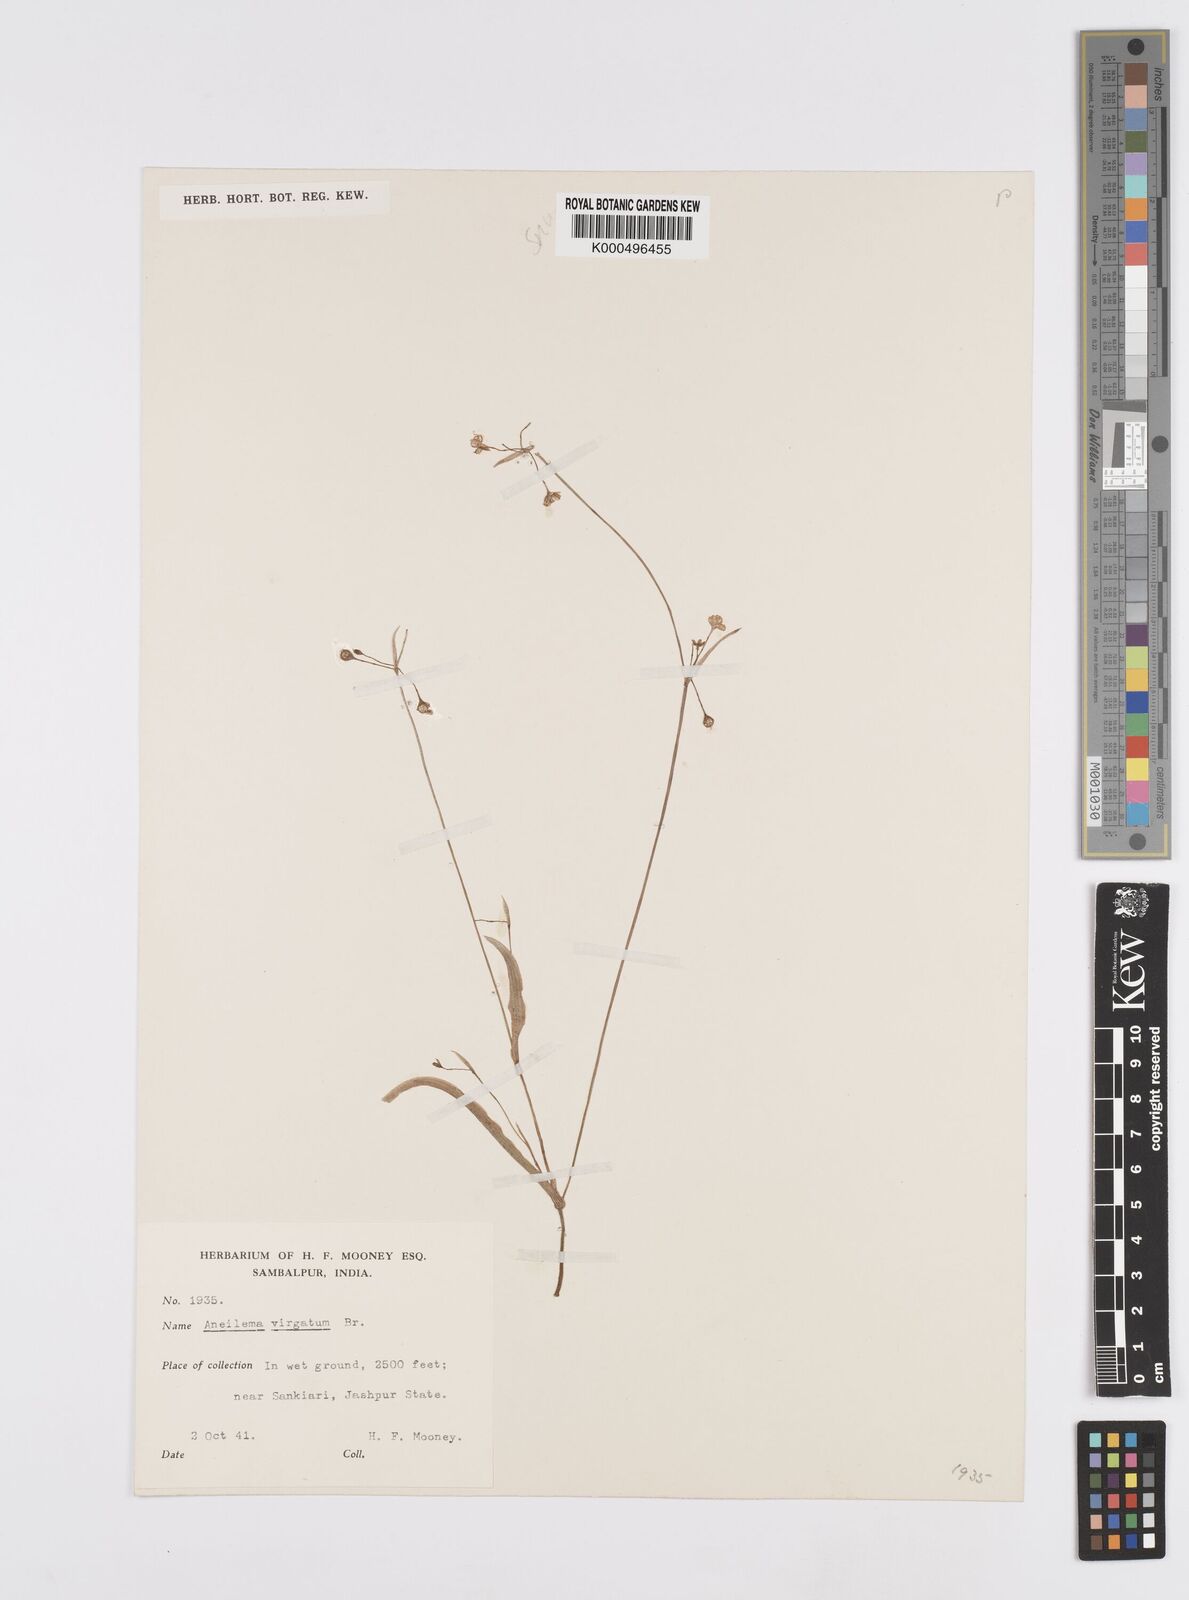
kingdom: Plantae
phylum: Tracheophyta
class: Liliopsida
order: Commelinales
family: Commelinaceae
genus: Murdannia
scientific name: Murdannia
